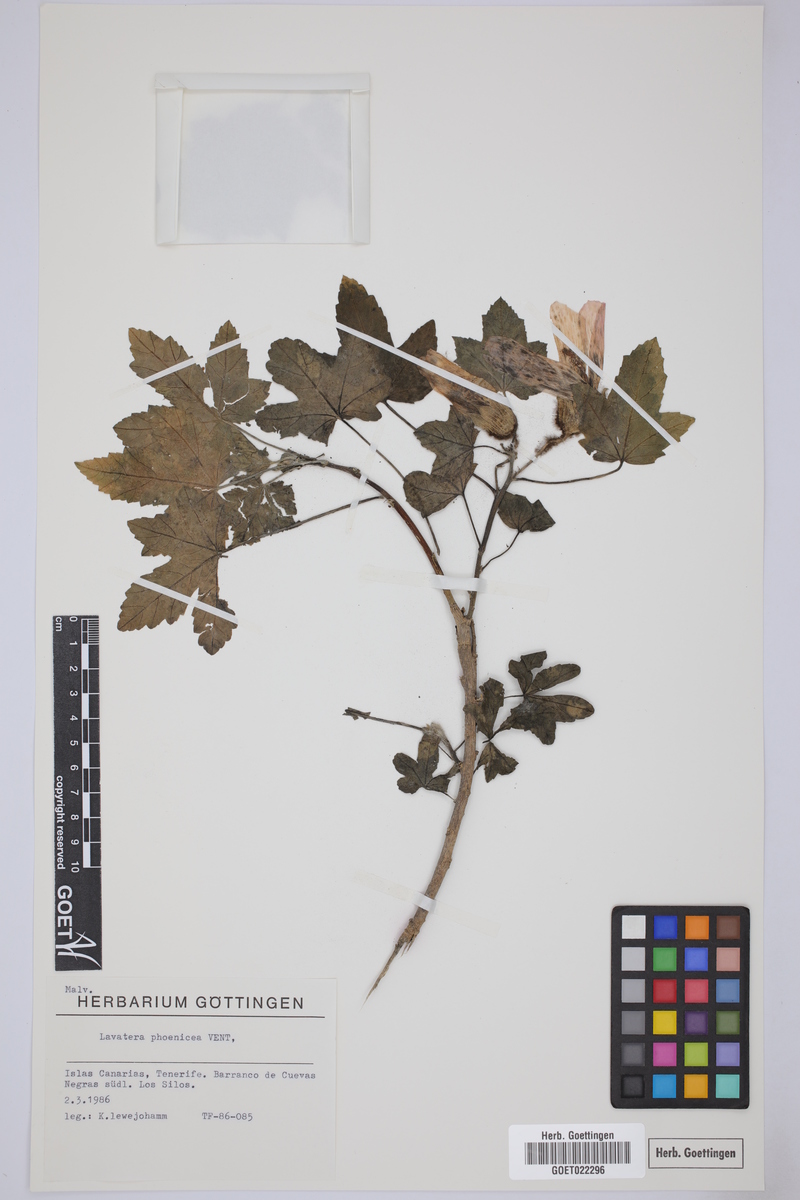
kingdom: Plantae
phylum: Tracheophyta
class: Magnoliopsida
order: Malvales
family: Malvaceae
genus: Malva
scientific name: Malva acerifolia
